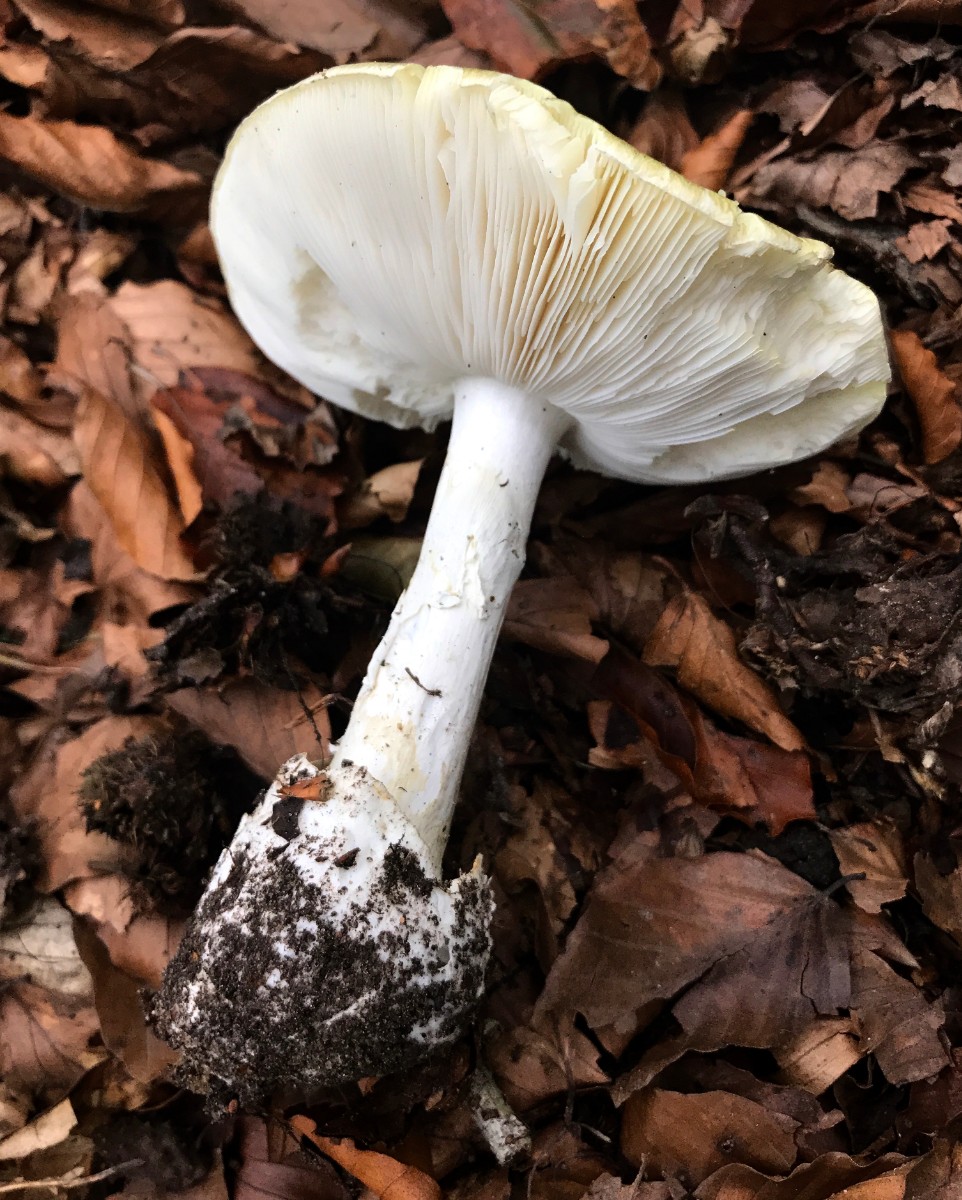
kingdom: Fungi
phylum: Basidiomycota
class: Agaricomycetes
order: Agaricales
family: Amanitaceae
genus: Amanita
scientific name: Amanita phalloides
